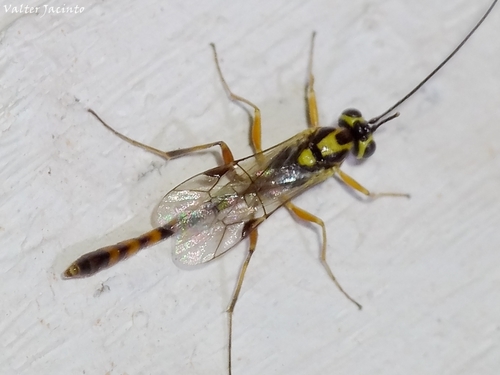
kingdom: Animalia
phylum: Arthropoda
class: Insecta
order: Hymenoptera
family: Ichneumonidae
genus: Syzeuctus
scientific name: Syzeuctus
